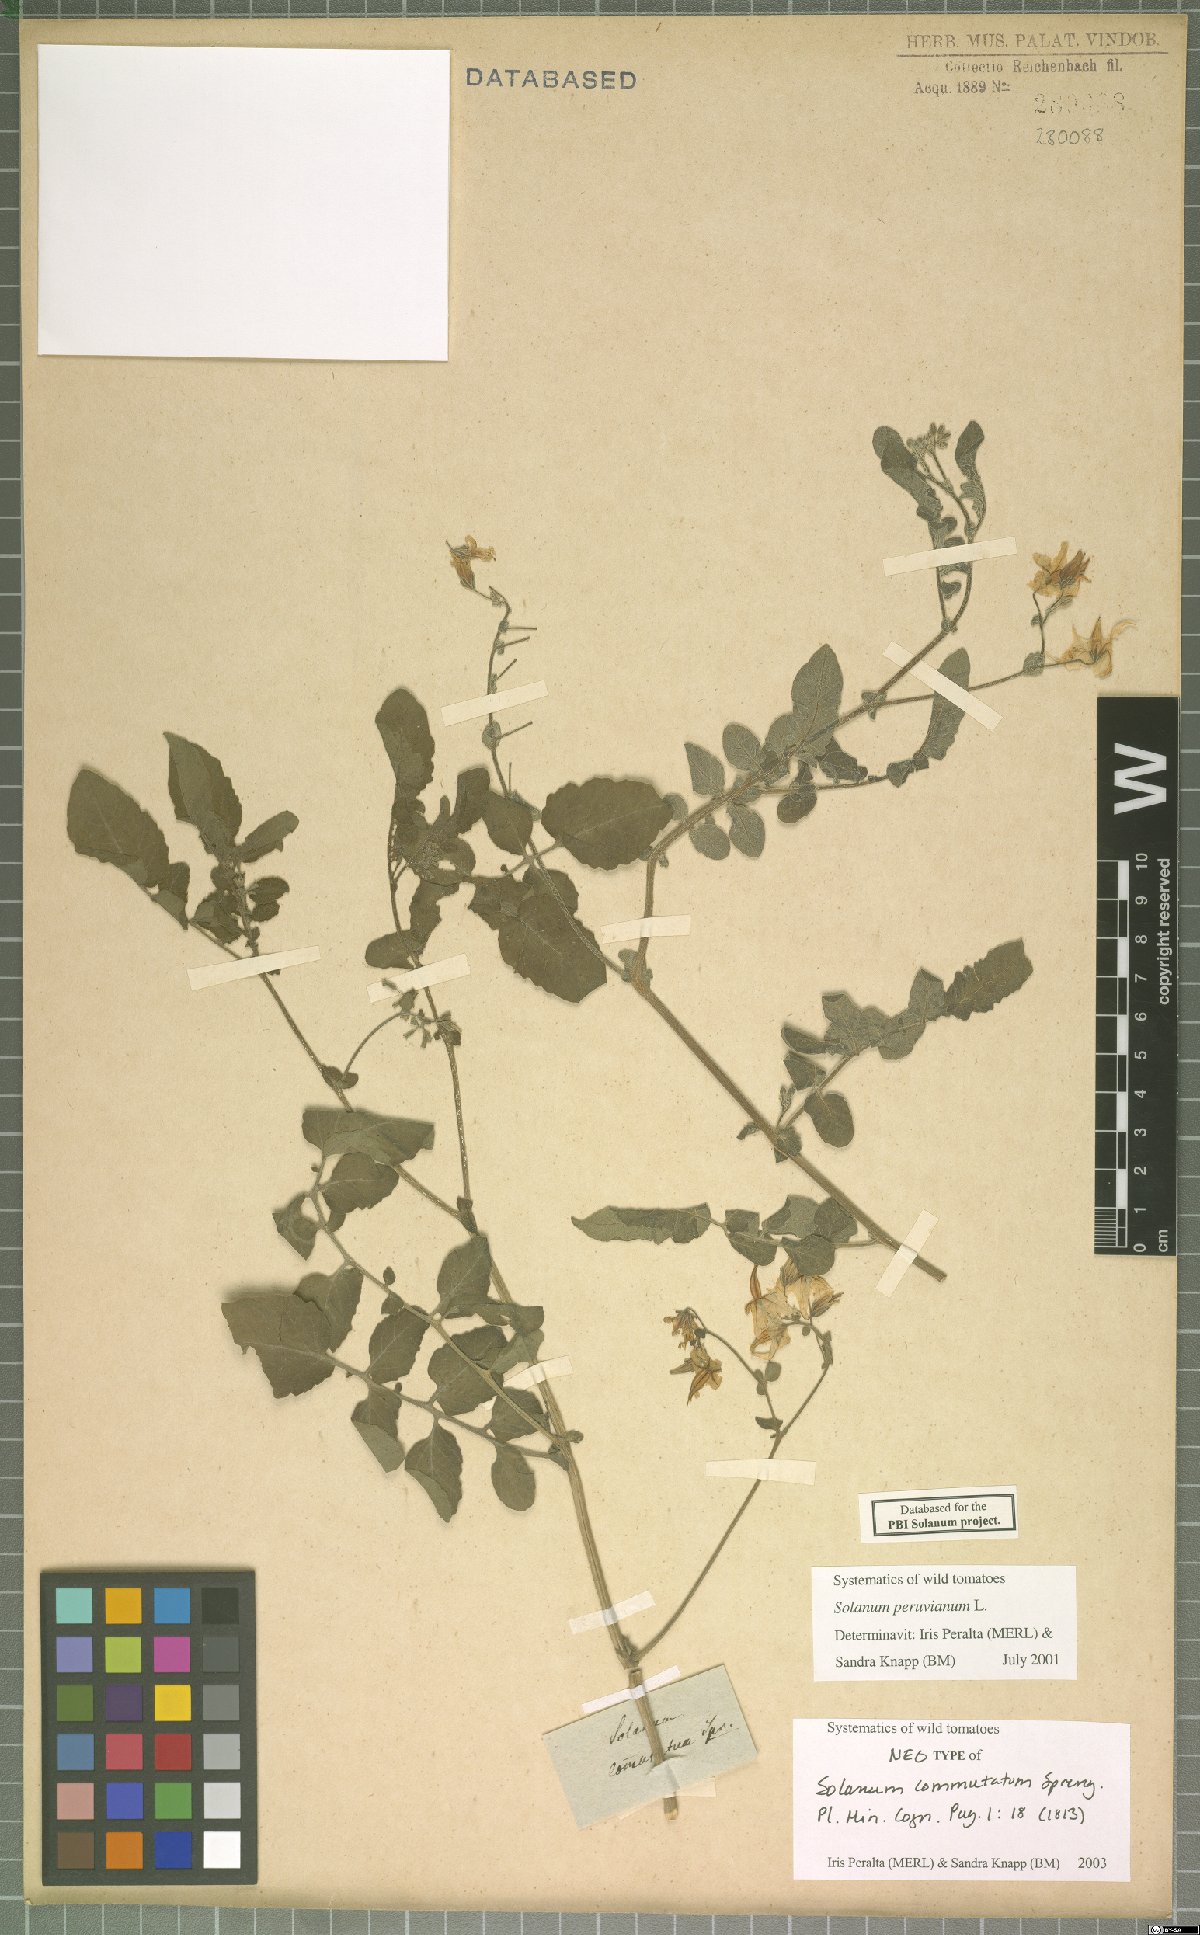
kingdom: Plantae
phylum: Tracheophyta
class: Magnoliopsida
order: Solanales
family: Solanaceae
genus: Solanum
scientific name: Solanum peruvianum
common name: Peruvian nightshade
